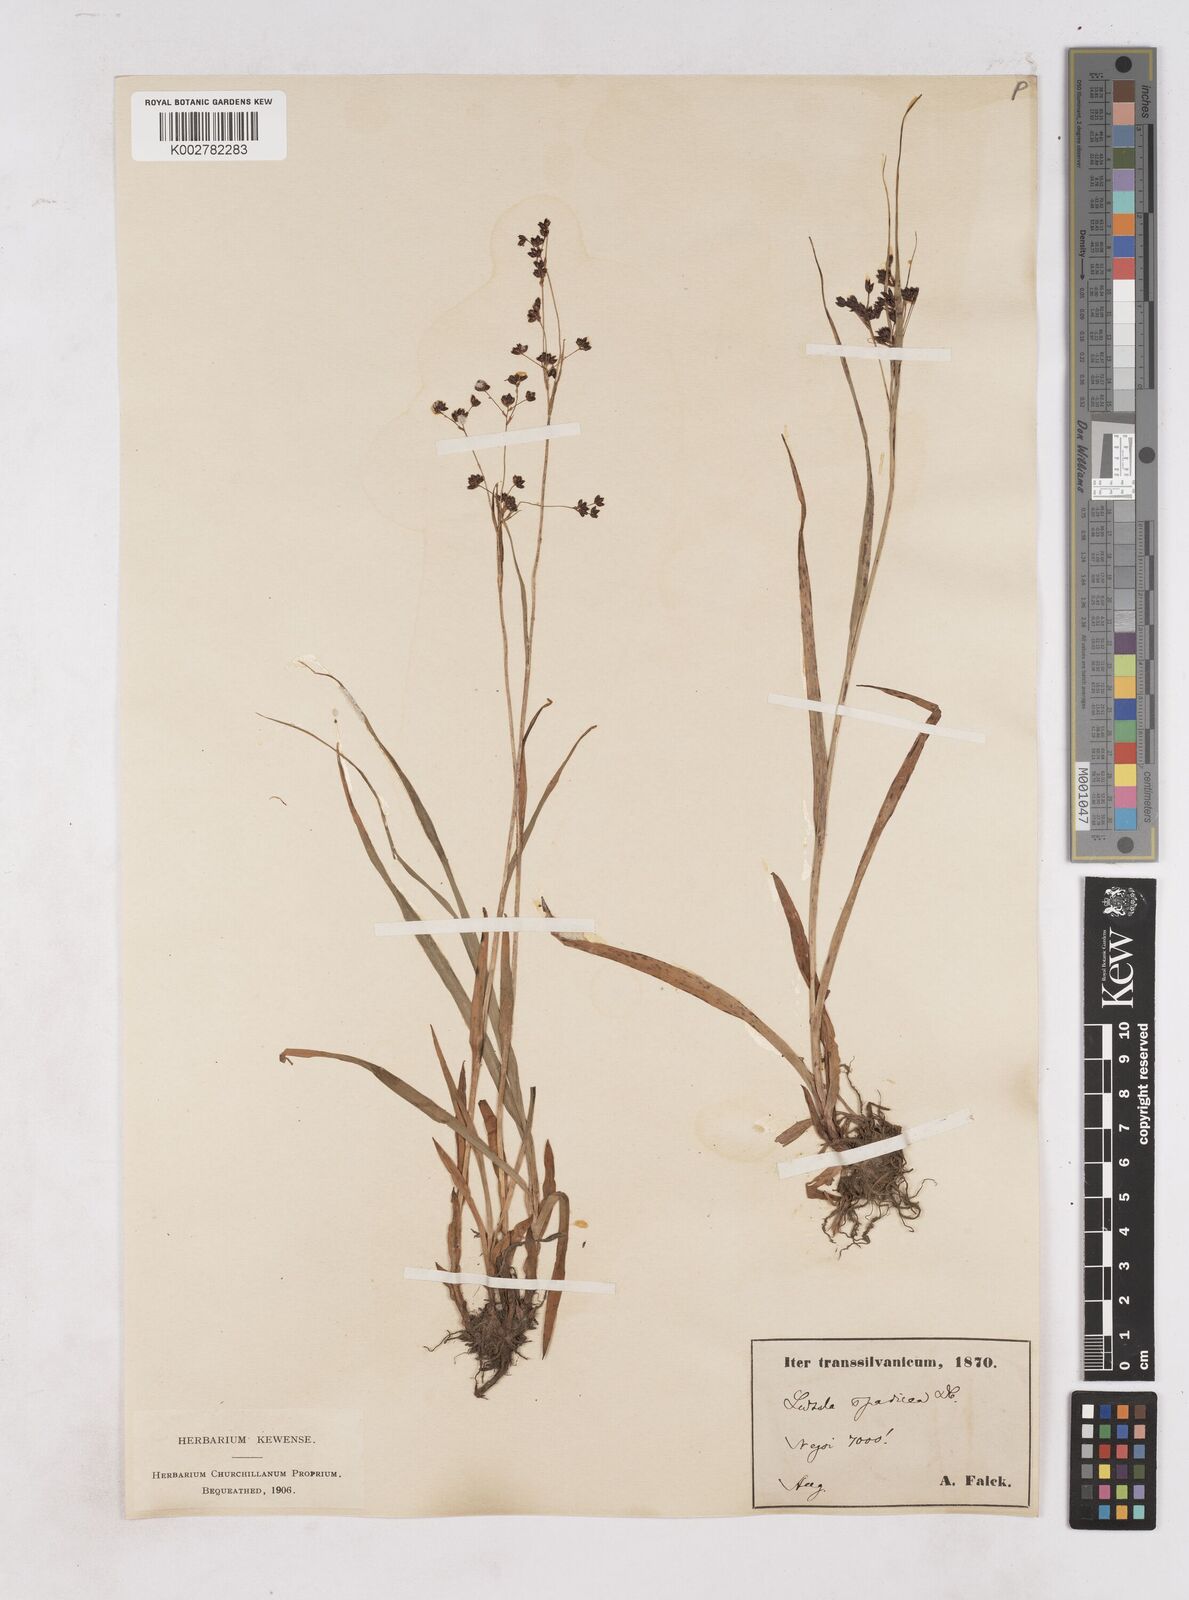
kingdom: Plantae
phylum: Tracheophyta
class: Liliopsida
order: Poales
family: Juncaceae
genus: Luzula
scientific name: Luzula alpinopilosa
